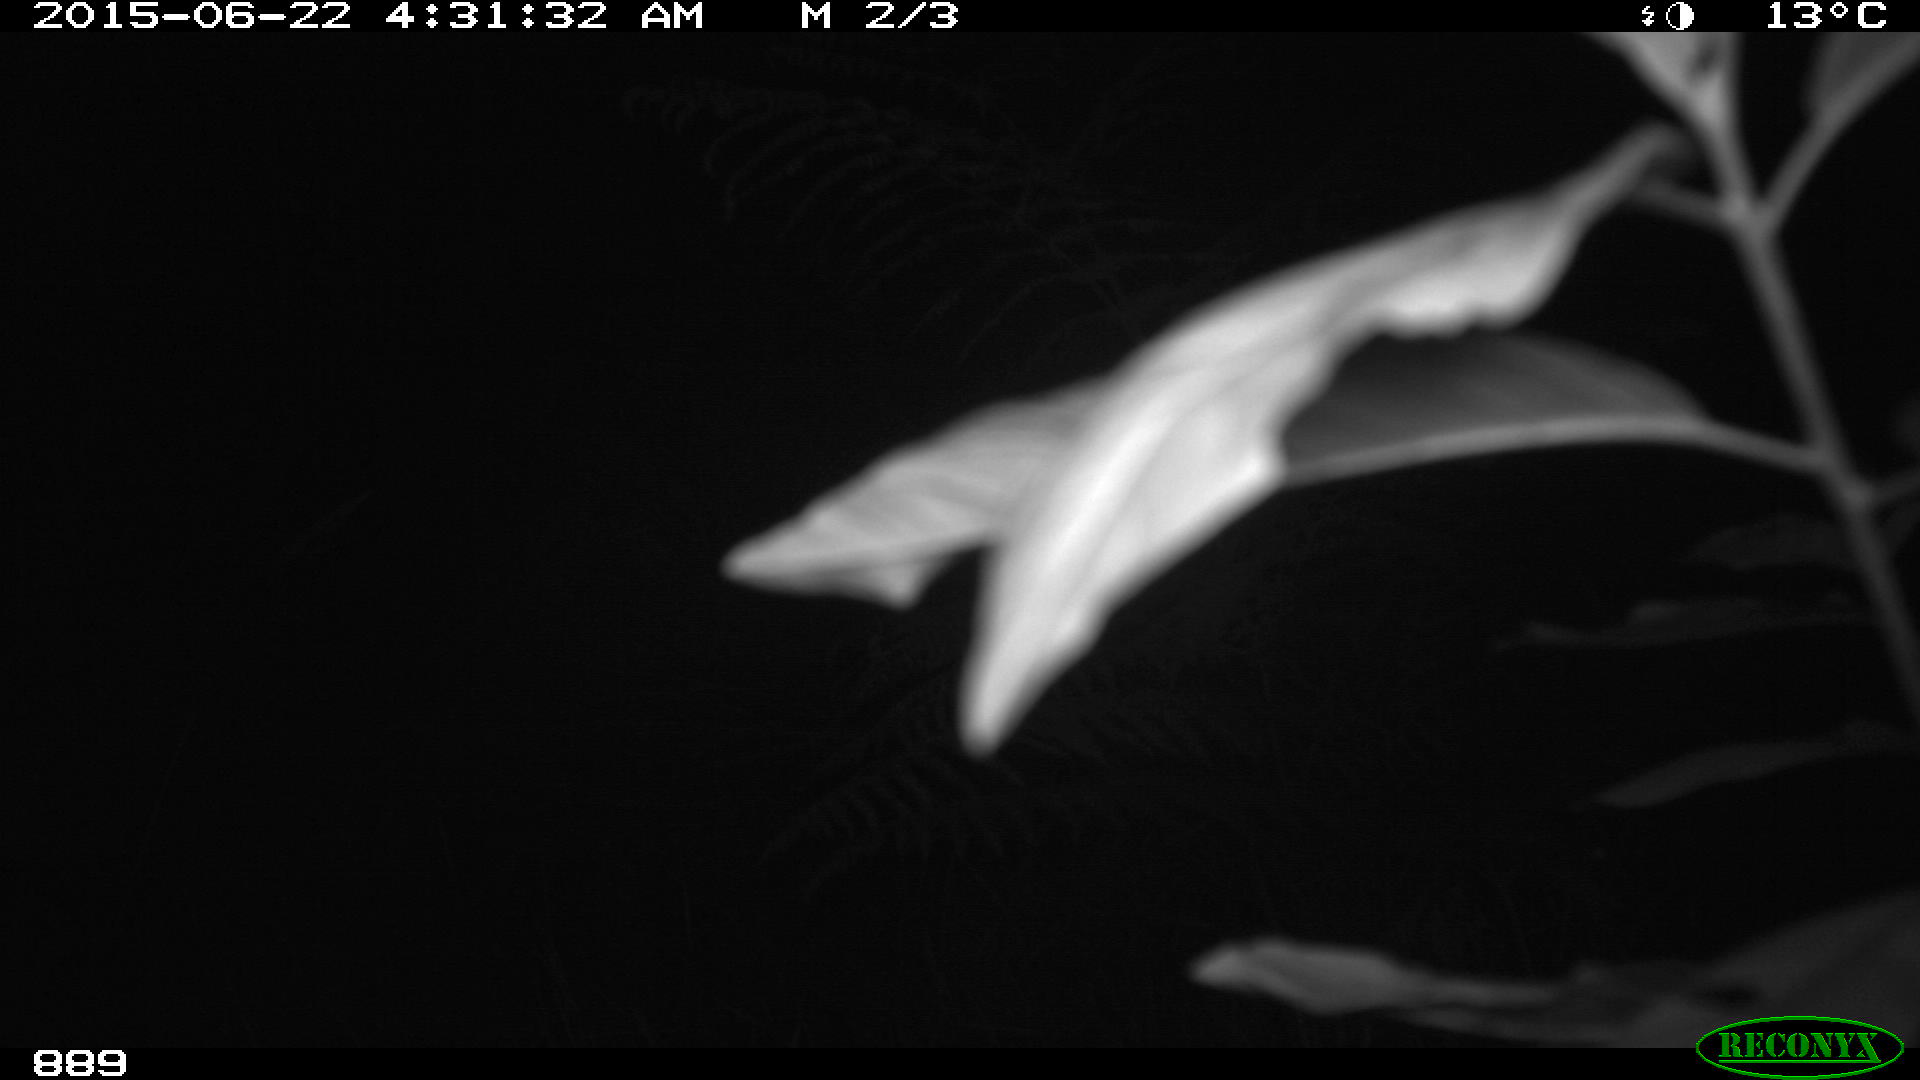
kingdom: Animalia
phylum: Chordata
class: Mammalia
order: Artiodactyla
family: Cervidae
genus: Capreolus
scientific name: Capreolus capreolus
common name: Western roe deer
